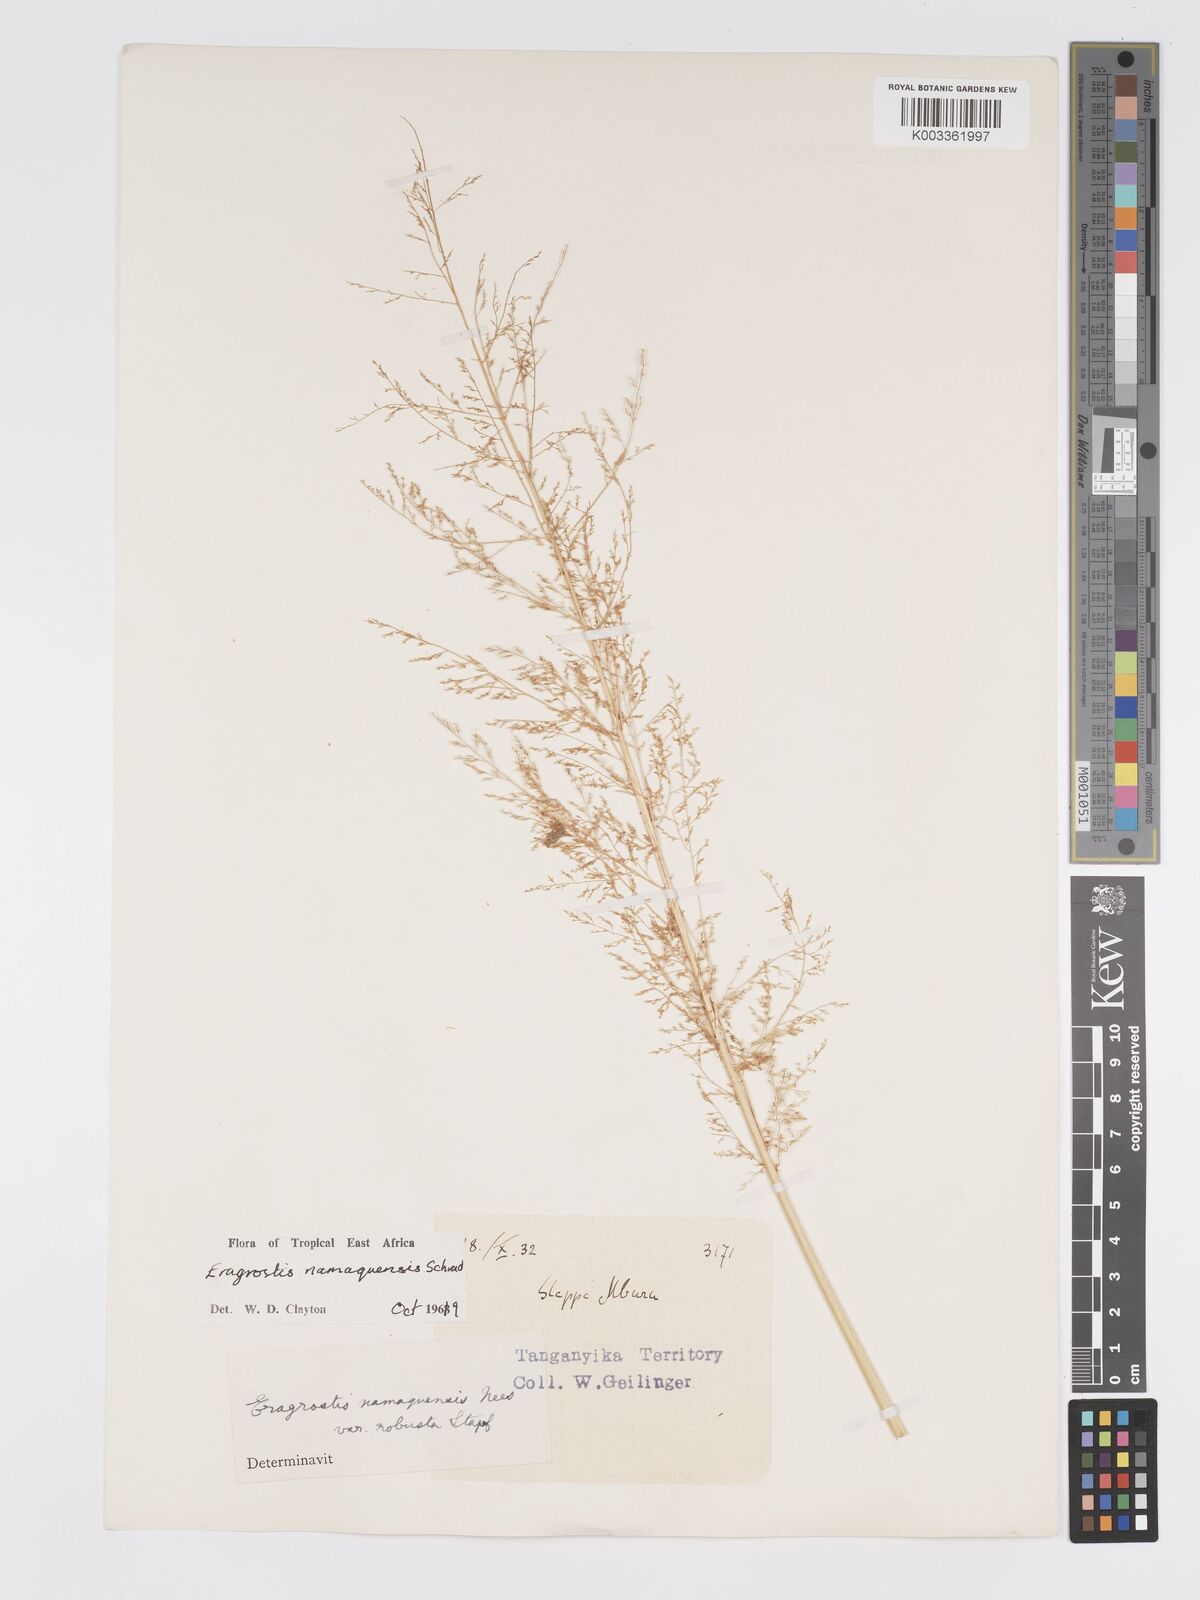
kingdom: Plantae
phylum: Tracheophyta
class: Liliopsida
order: Poales
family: Poaceae
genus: Eragrostis
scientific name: Eragrostis japonica
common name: Pond lovegrass
